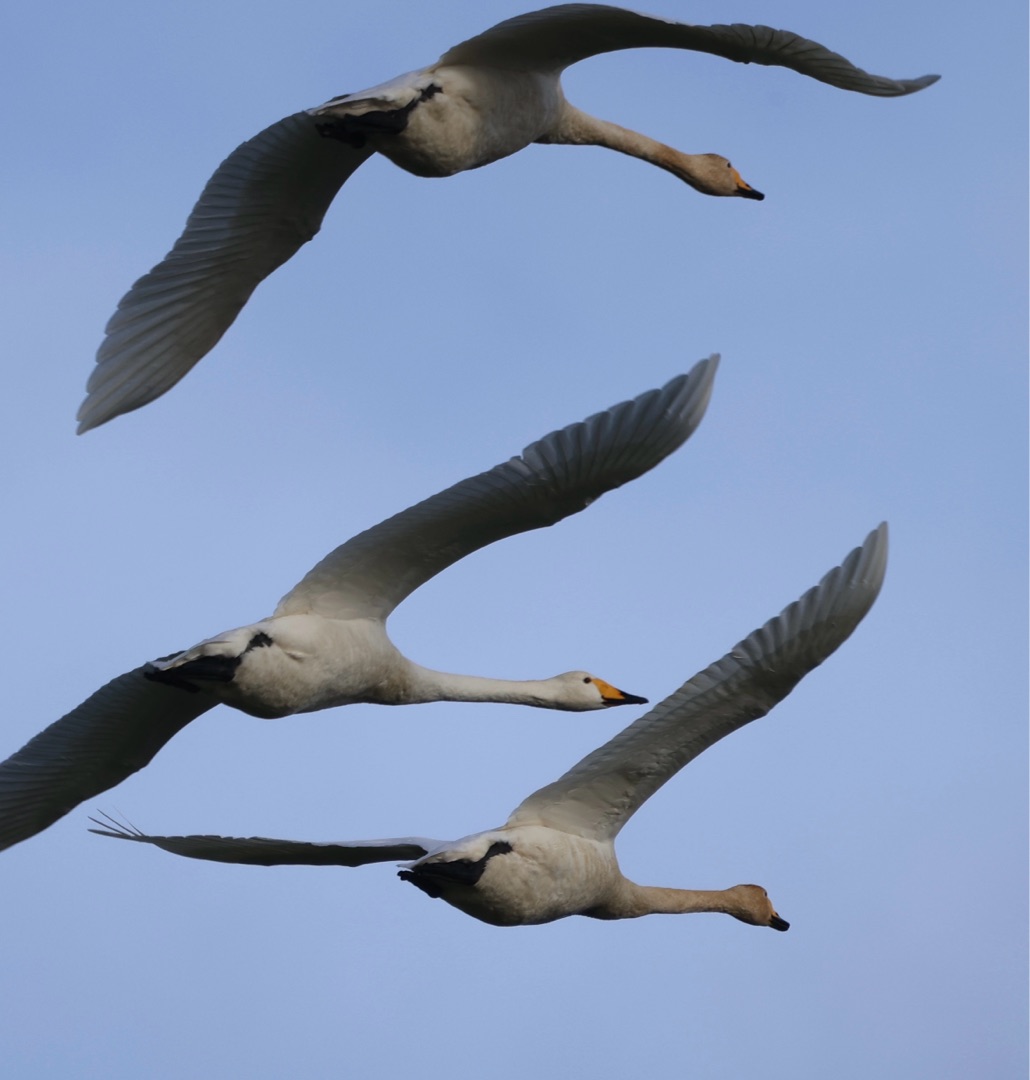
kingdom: Animalia
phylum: Chordata
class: Aves
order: Anseriformes
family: Anatidae
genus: Cygnus
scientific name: Cygnus cygnus
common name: Sangsvane
